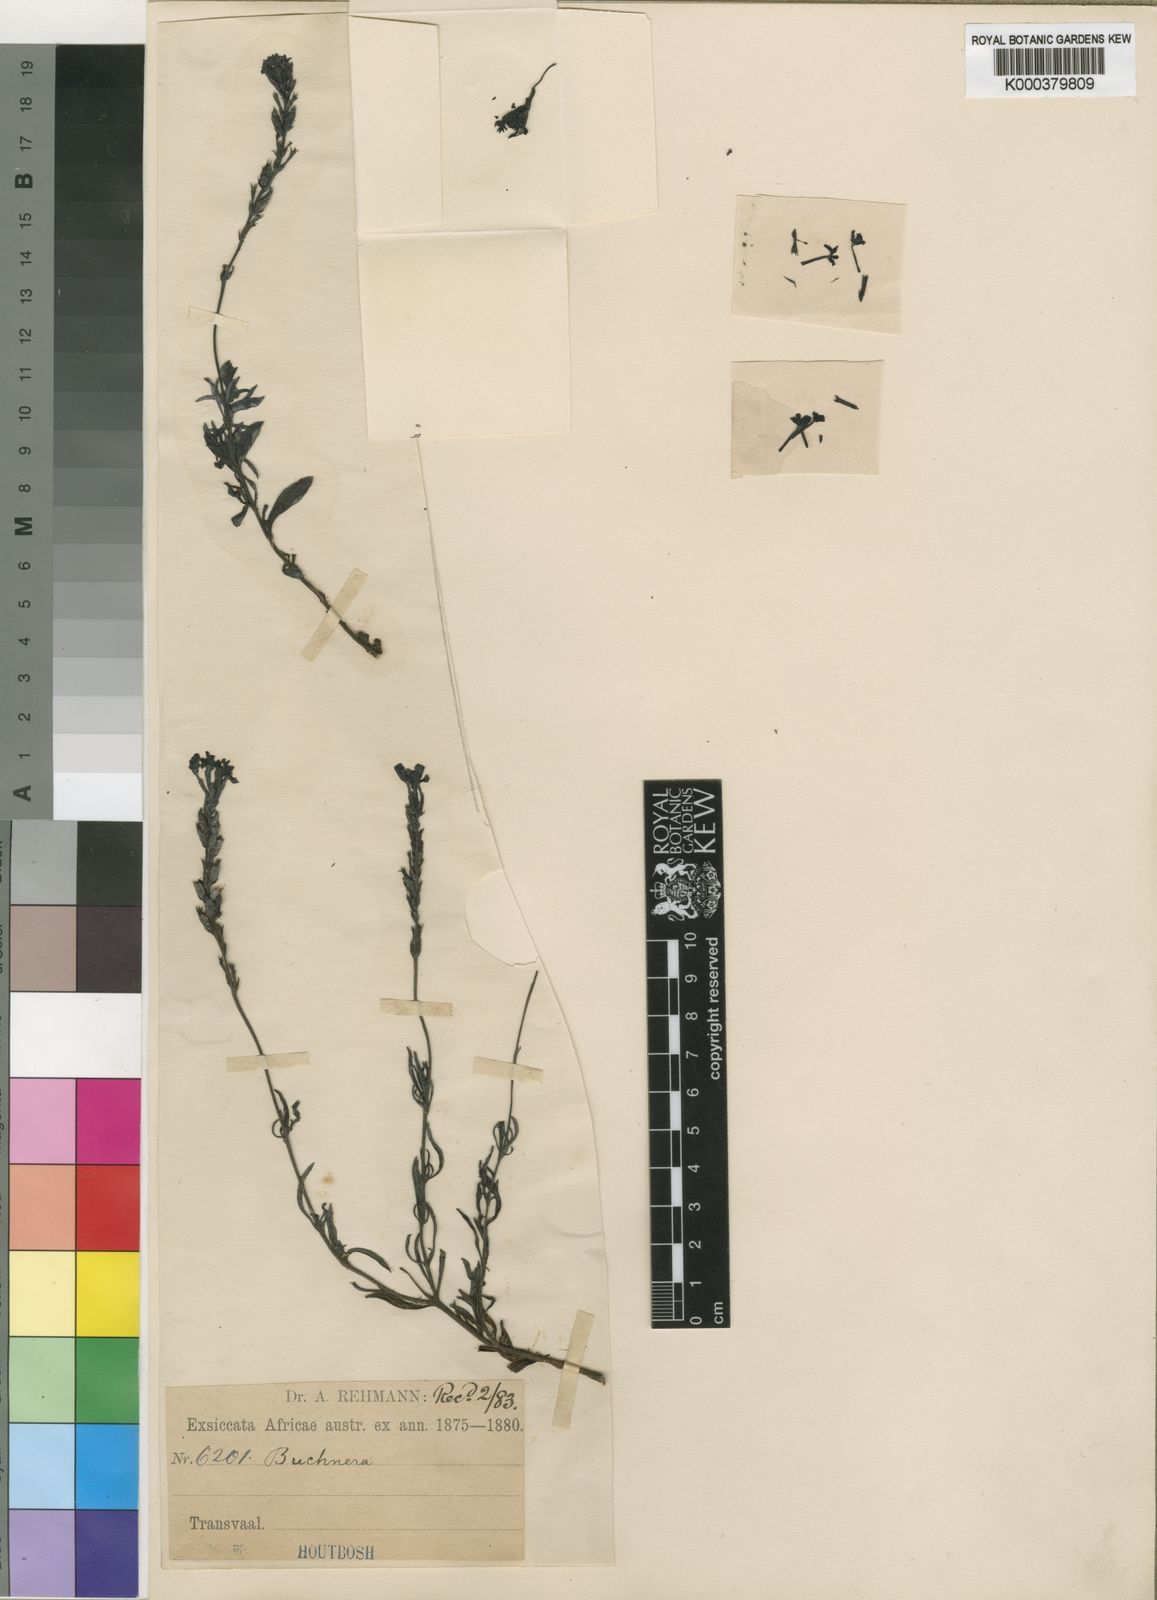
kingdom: Plantae
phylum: Tracheophyta
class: Magnoliopsida
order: Lamiales
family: Orobanchaceae
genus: Buchnera
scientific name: Buchnera longespicata
